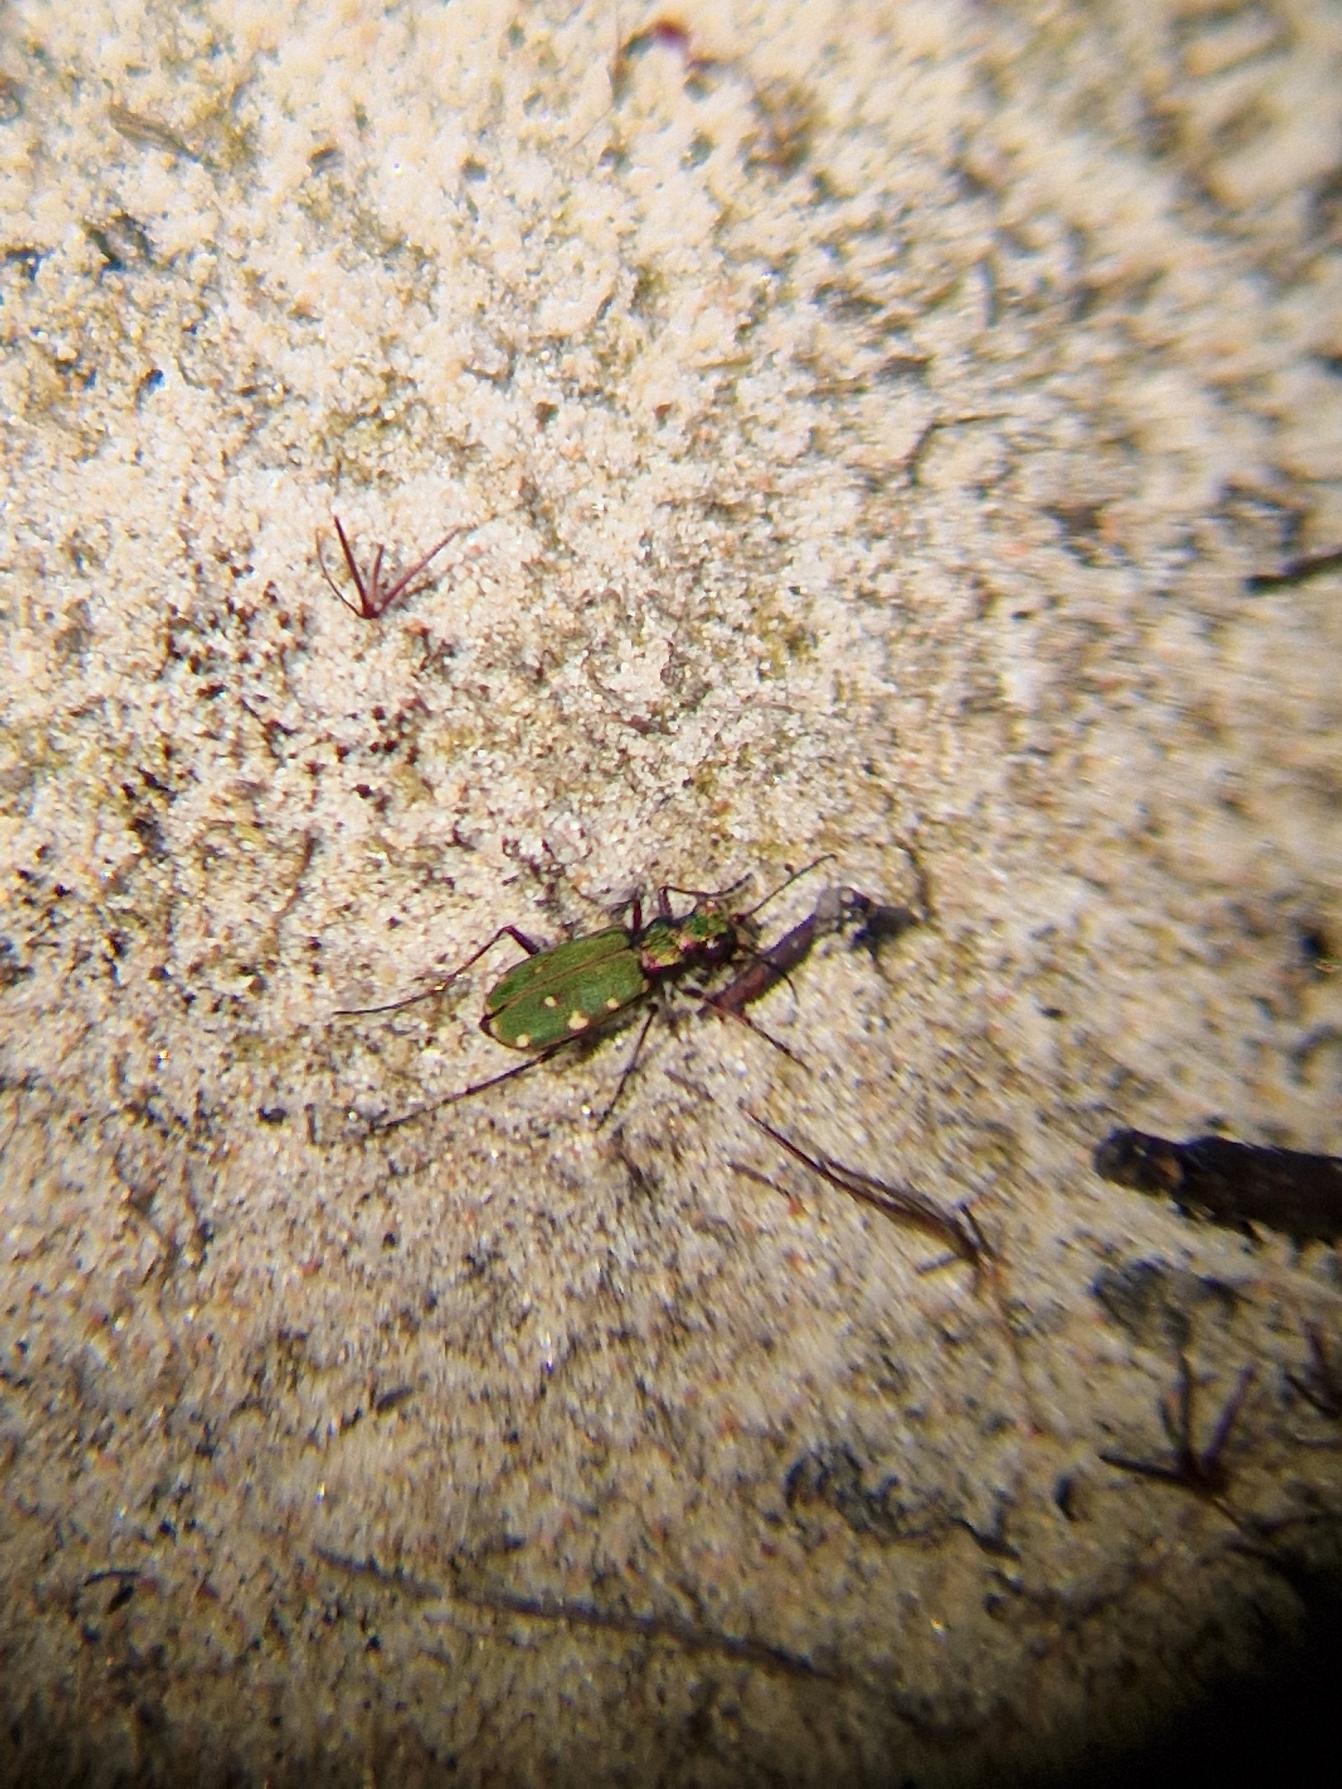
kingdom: Animalia
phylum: Arthropoda
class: Insecta
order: Coleoptera
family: Carabidae
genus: Cicindela
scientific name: Cicindela campestris
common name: Grøn sandspringer
